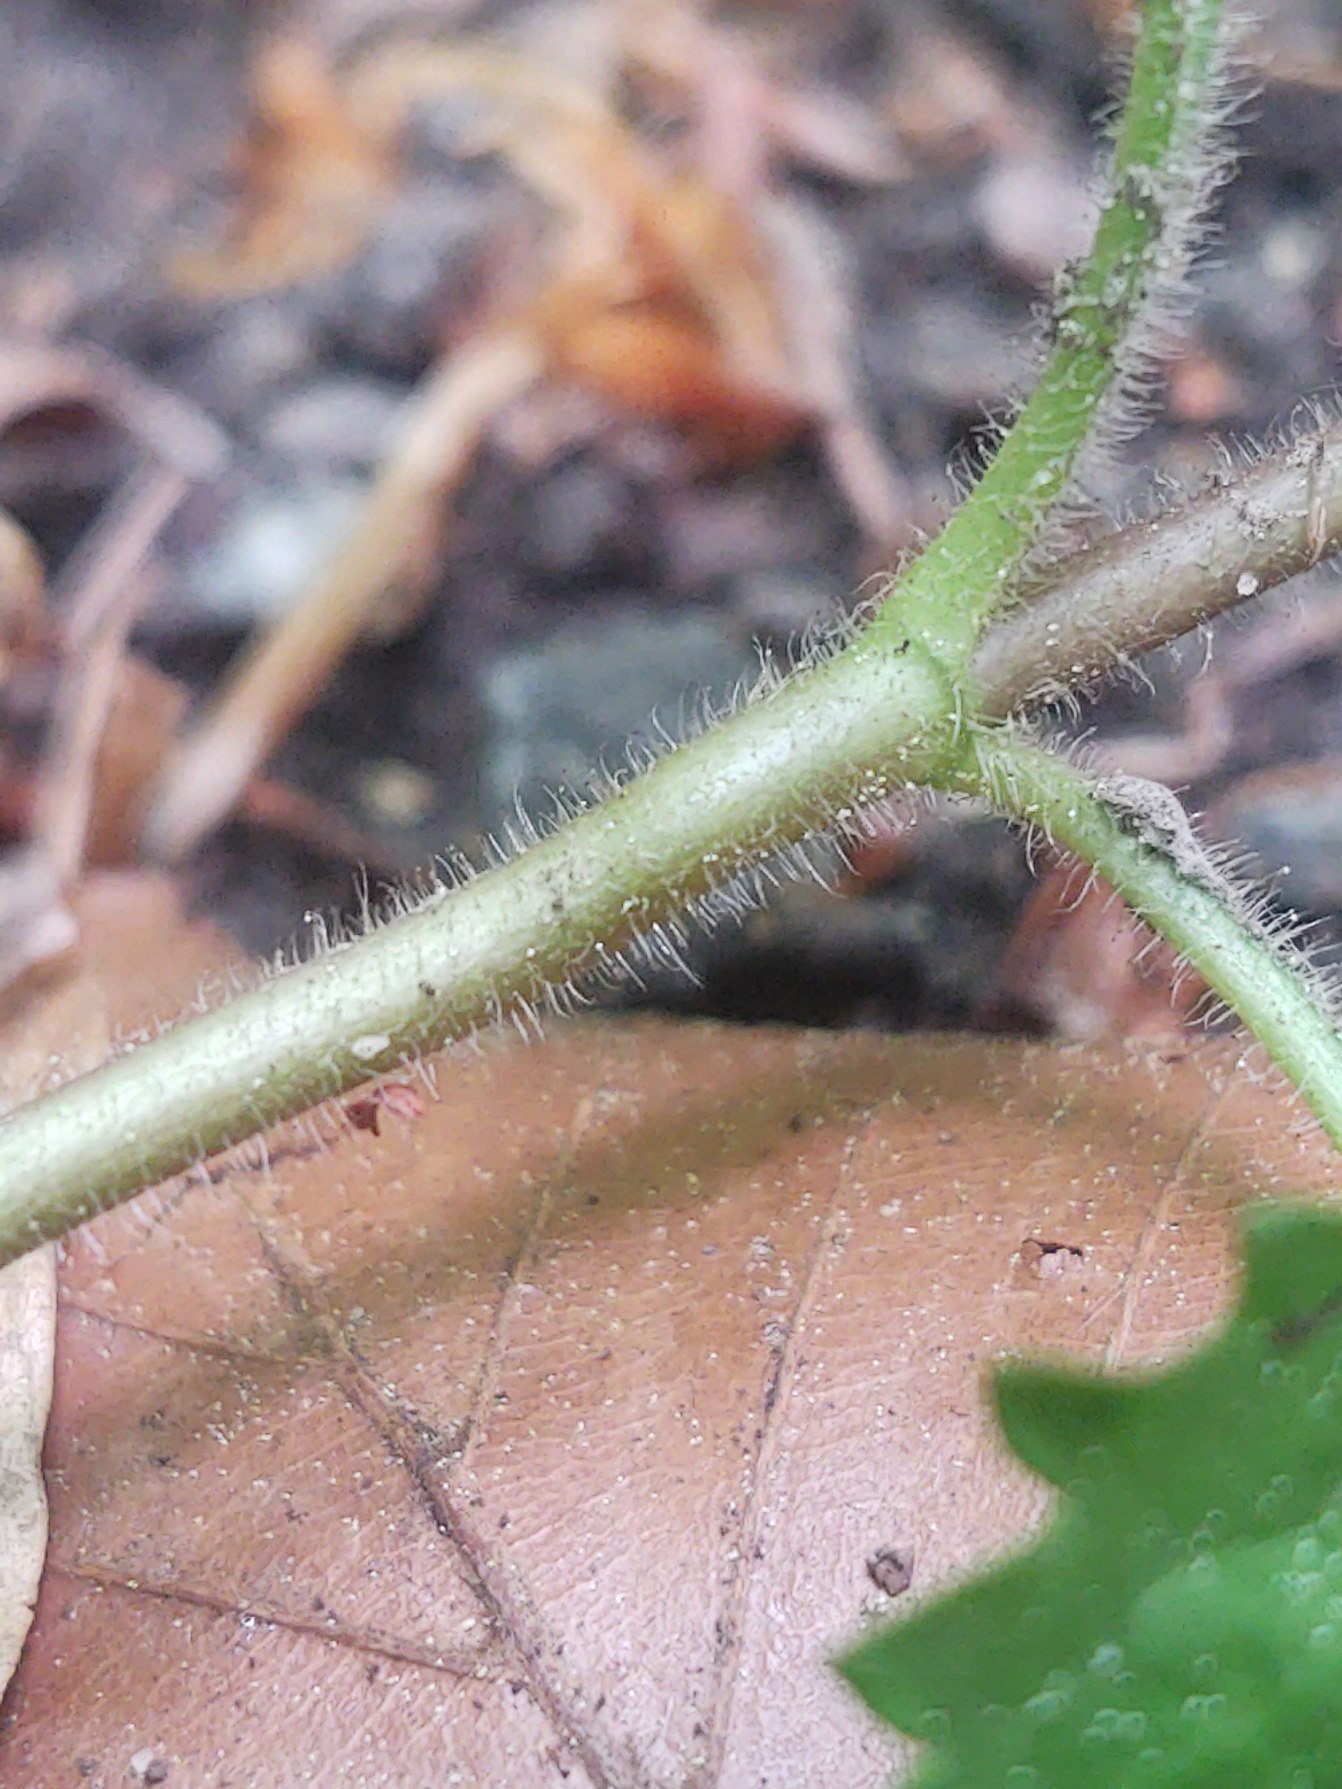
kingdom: Plantae
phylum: Tracheophyta
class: Magnoliopsida
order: Lamiales
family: Plantaginaceae
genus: Veronica
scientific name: Veronica montana
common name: Bjerg-ærenpris
